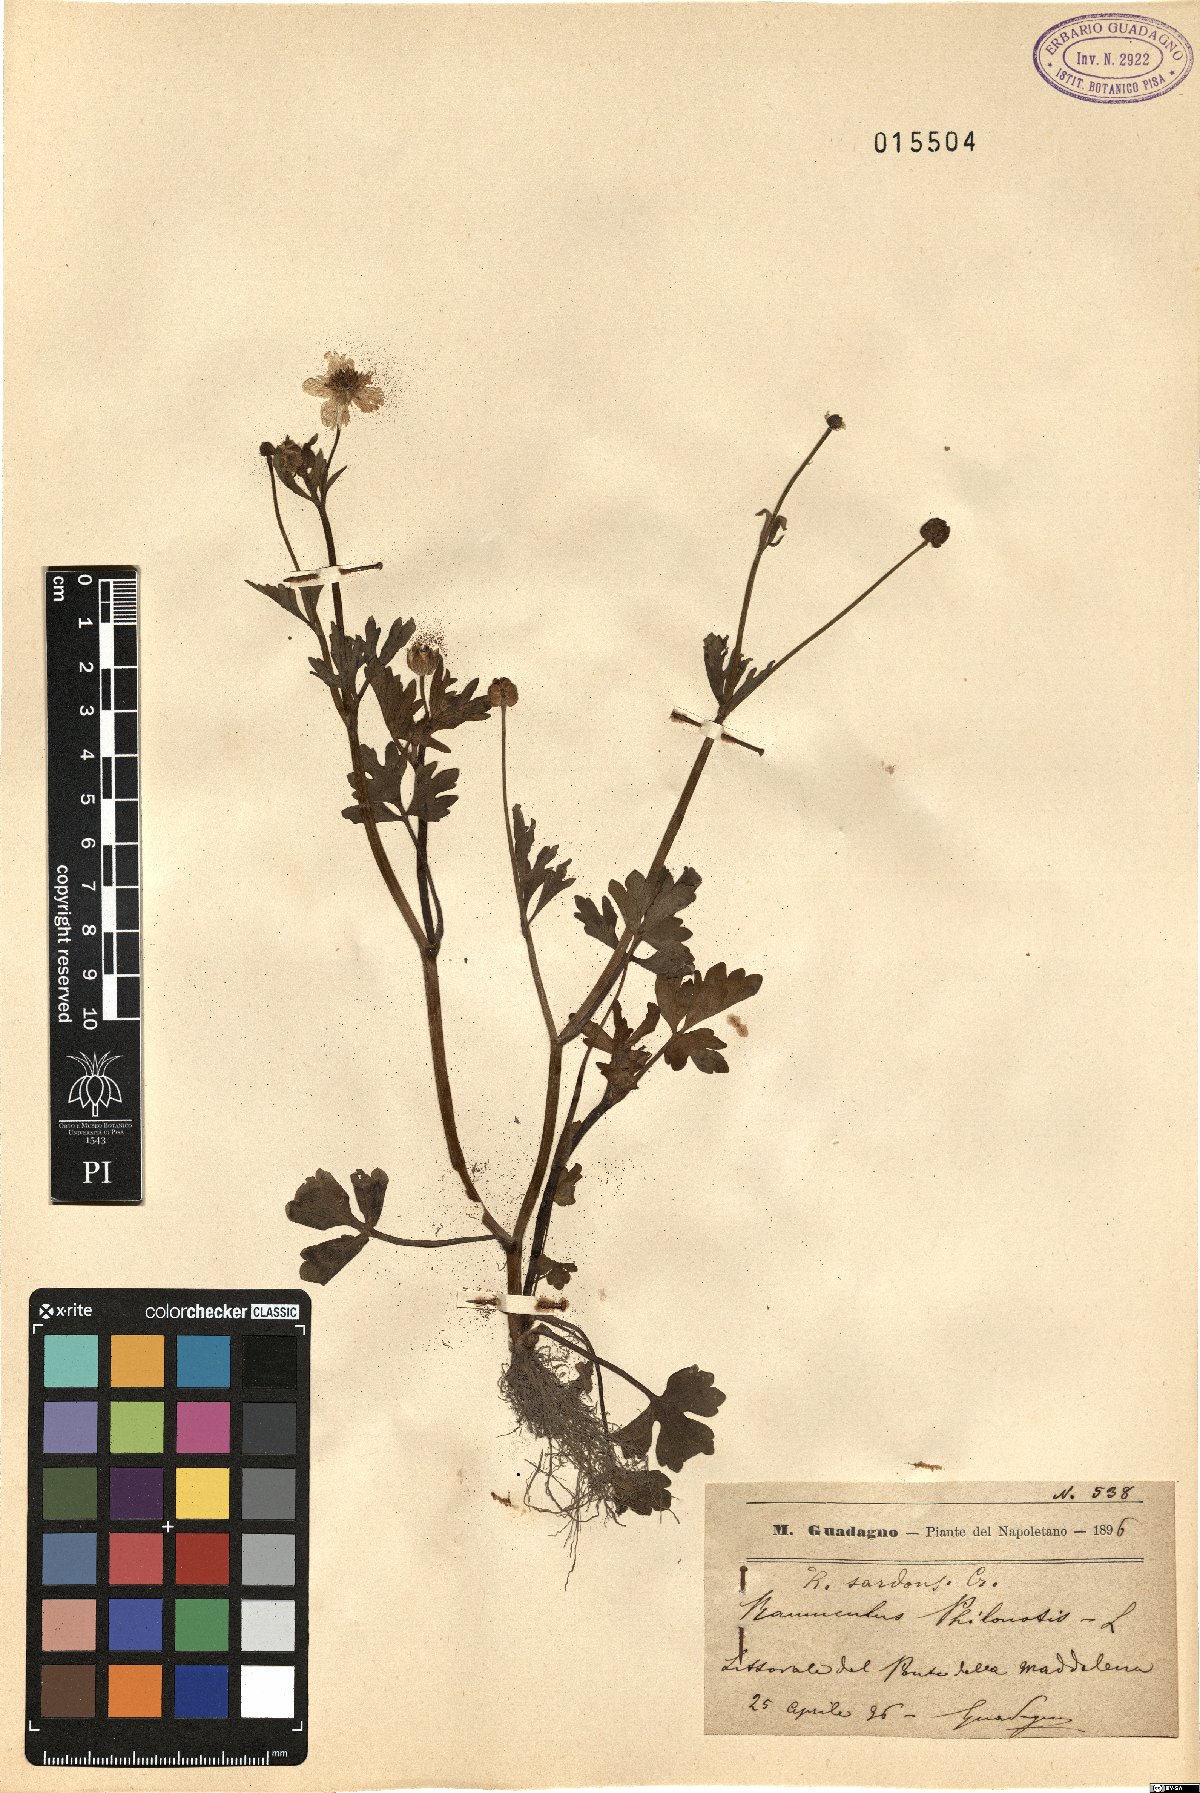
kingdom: Plantae
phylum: Tracheophyta
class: Magnoliopsida
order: Ranunculales
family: Ranunculaceae
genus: Ranunculus
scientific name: Ranunculus sardous
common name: Hairy buttercup
